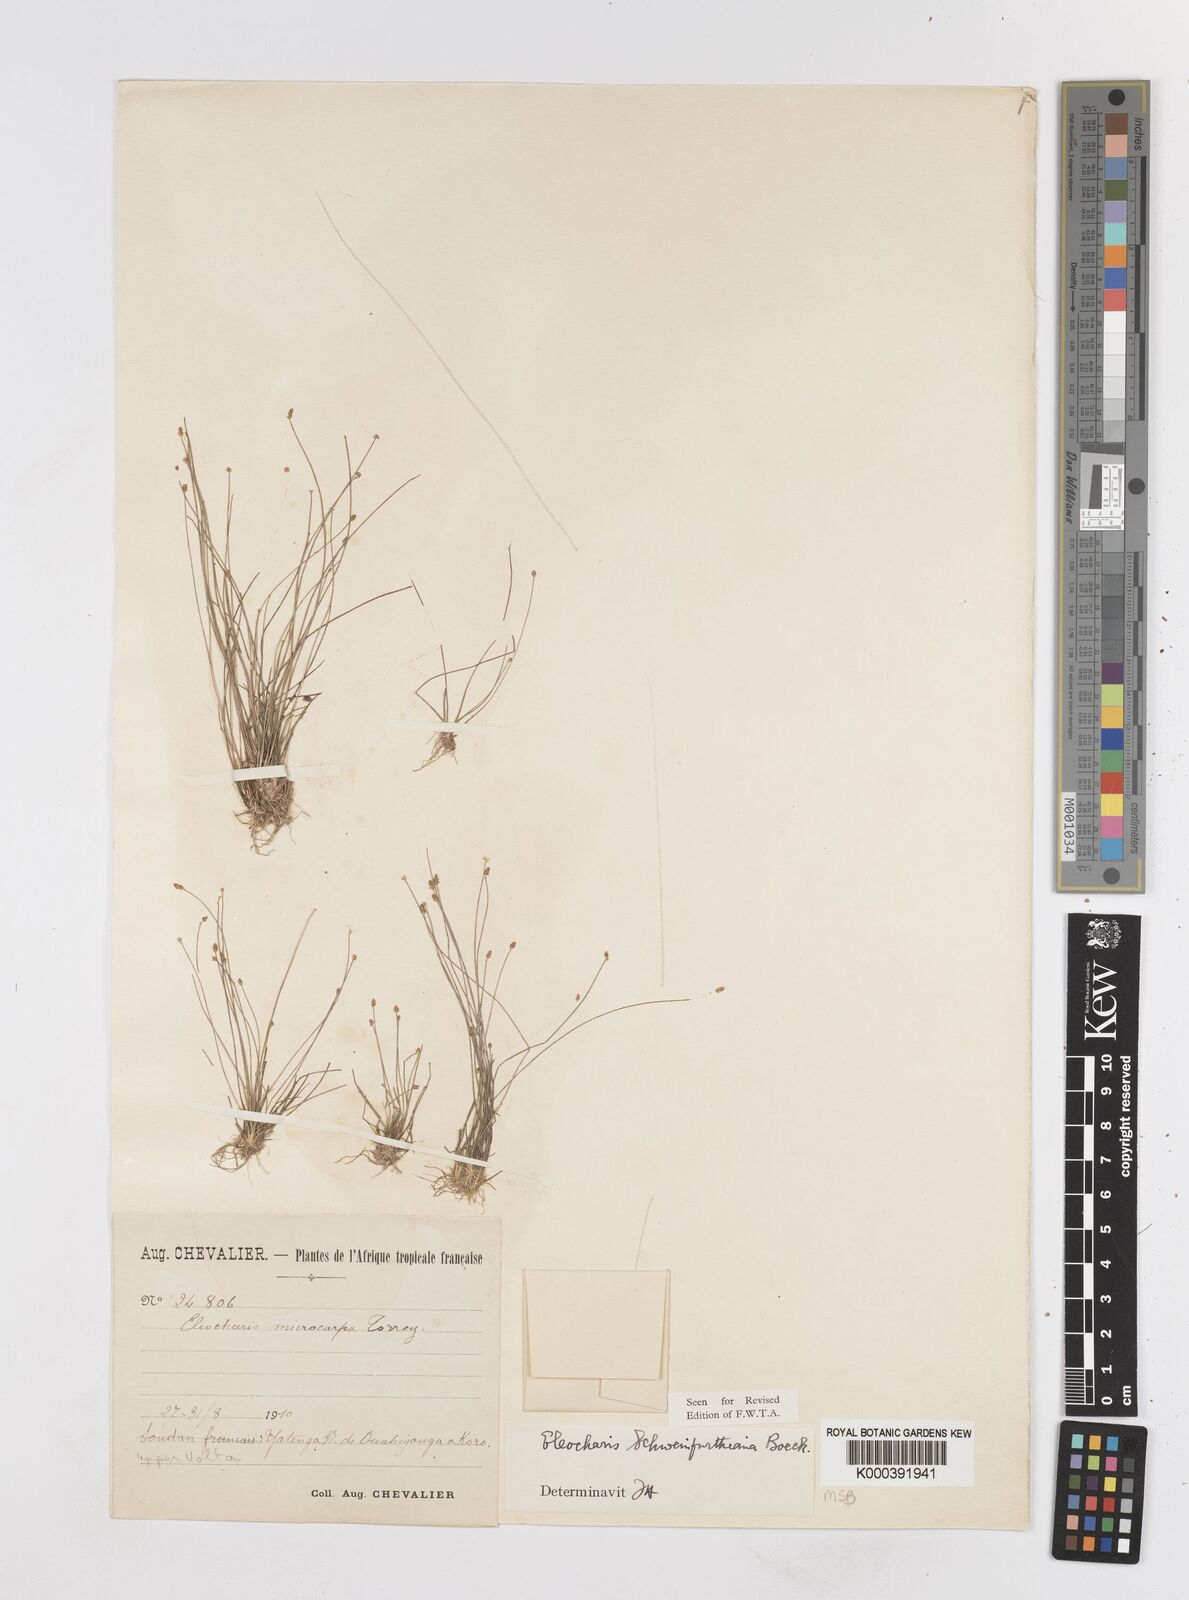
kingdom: Plantae
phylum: Tracheophyta
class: Liliopsida
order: Poales
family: Cyperaceae
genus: Eleocharis
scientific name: Eleocharis setifolia
